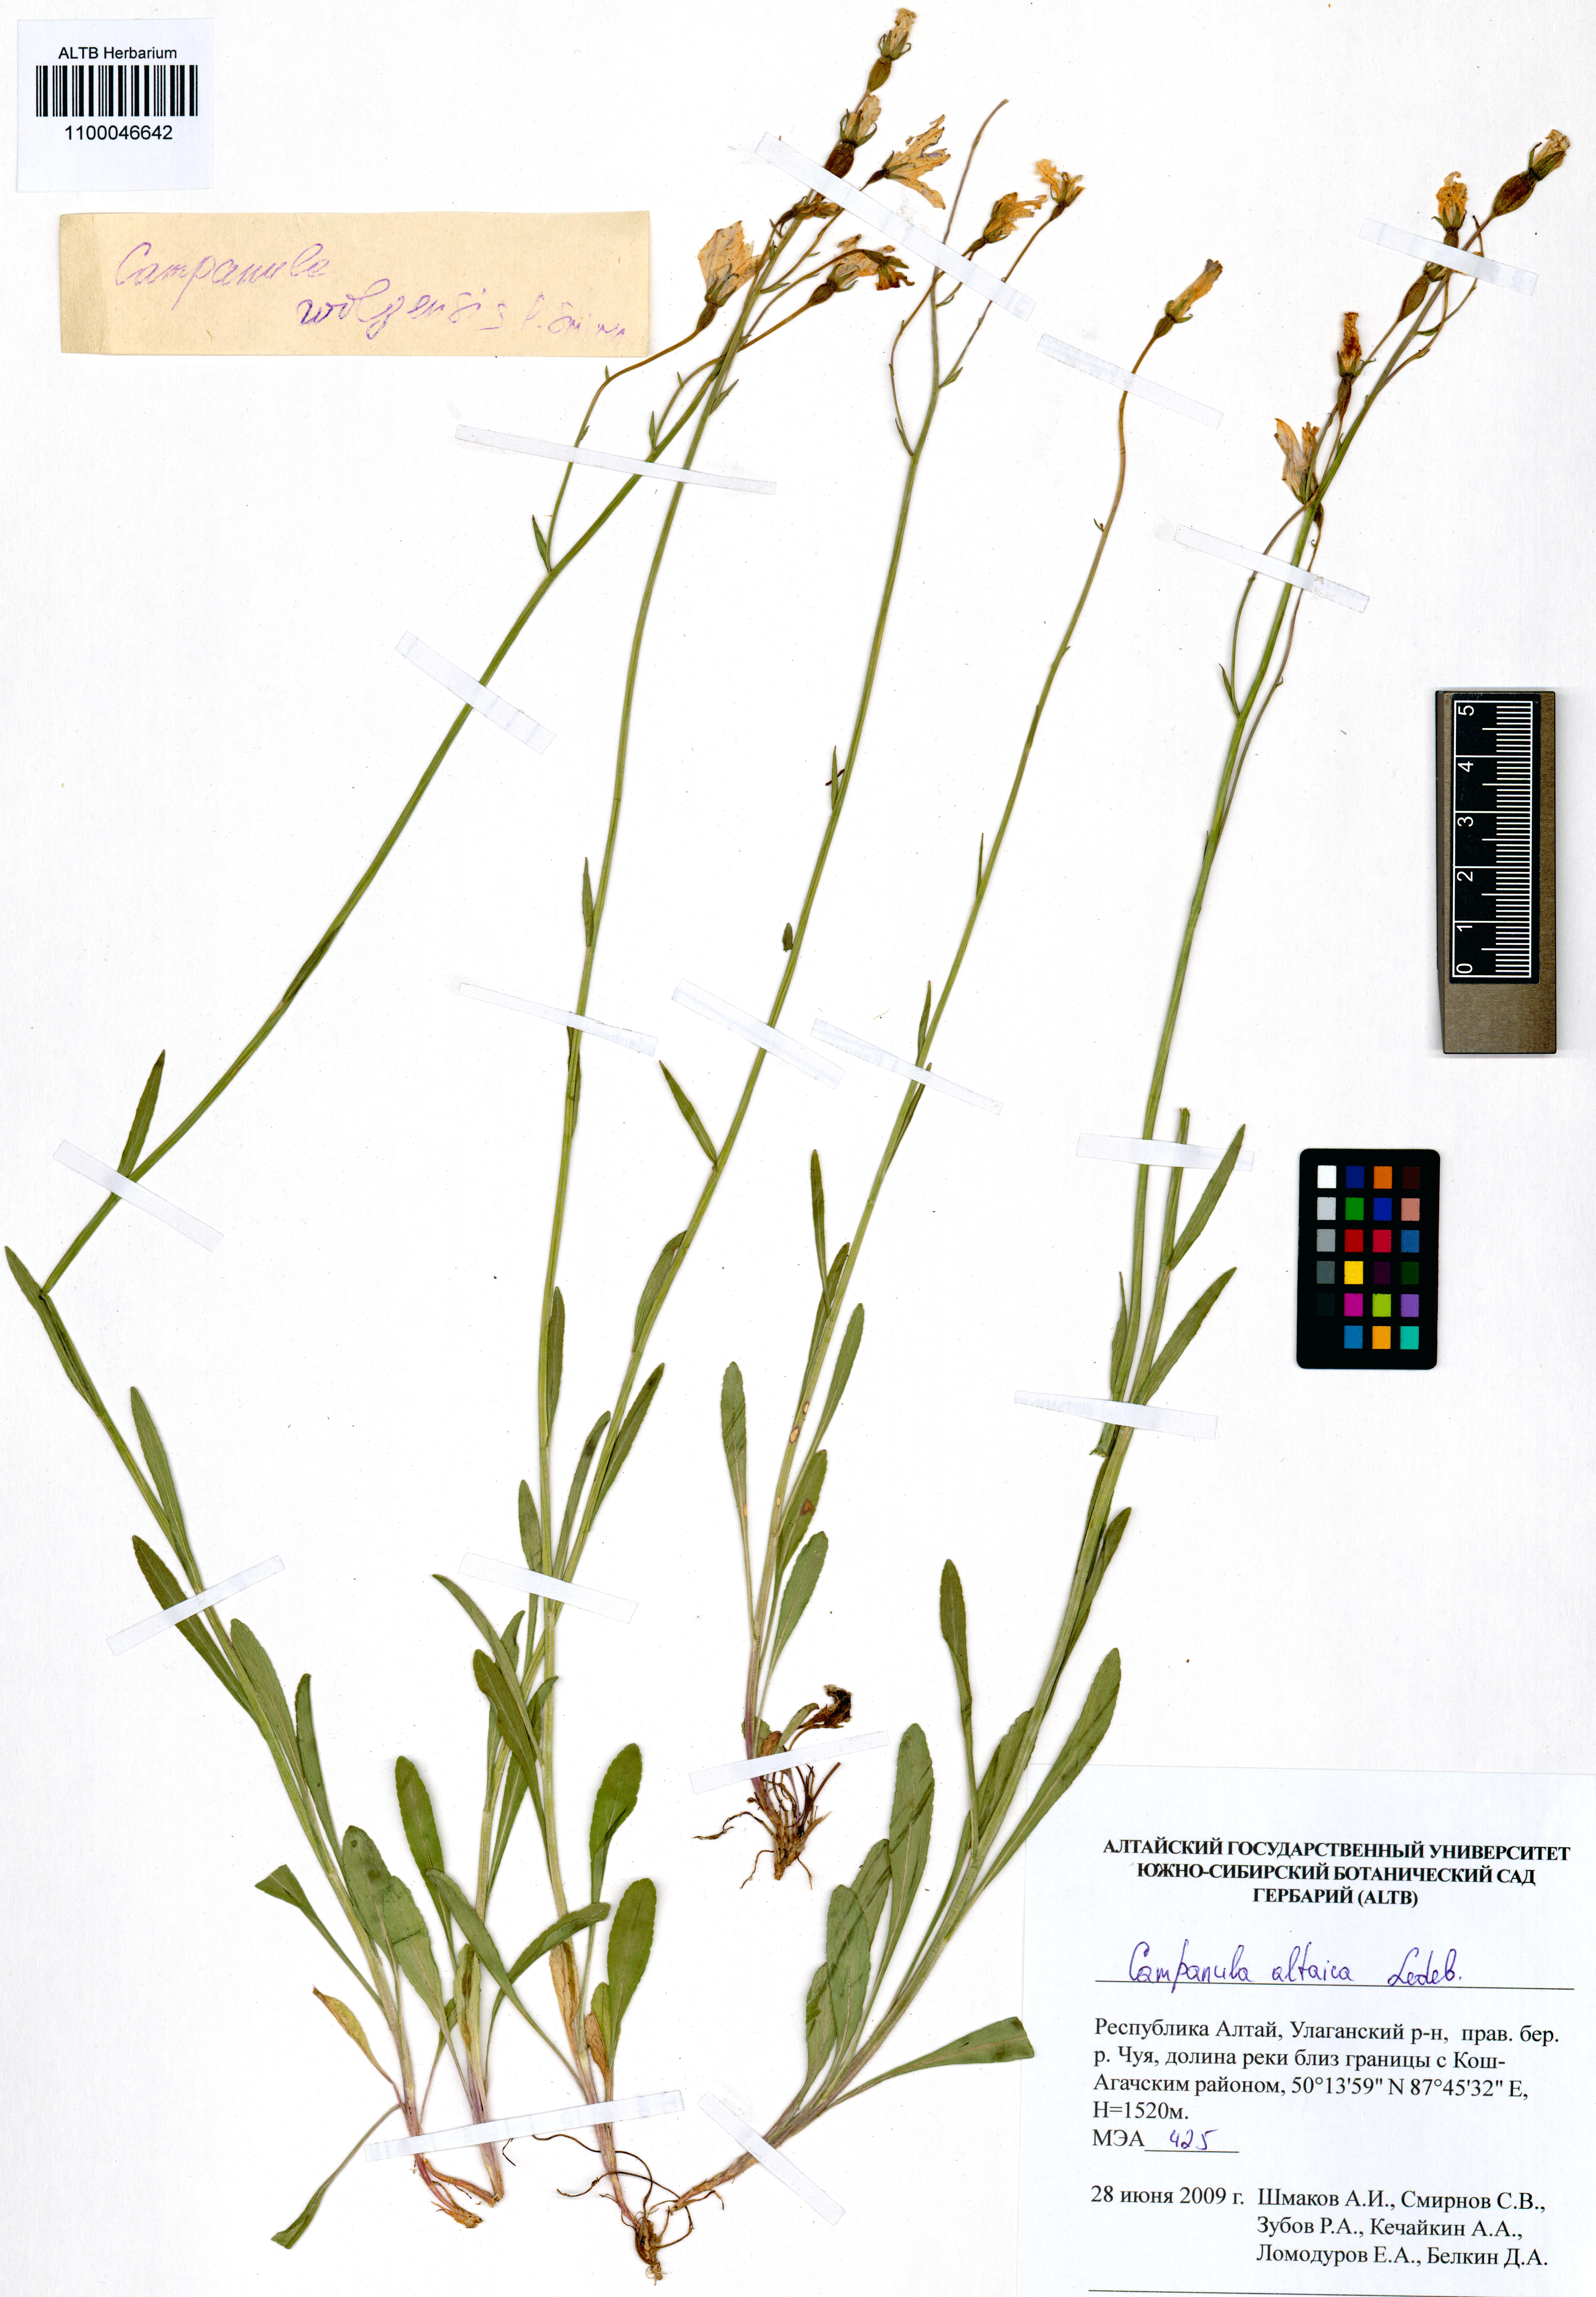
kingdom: Plantae
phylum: Tracheophyta
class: Magnoliopsida
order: Asterales
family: Campanulaceae
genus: Campanula
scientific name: Campanula stevenii
